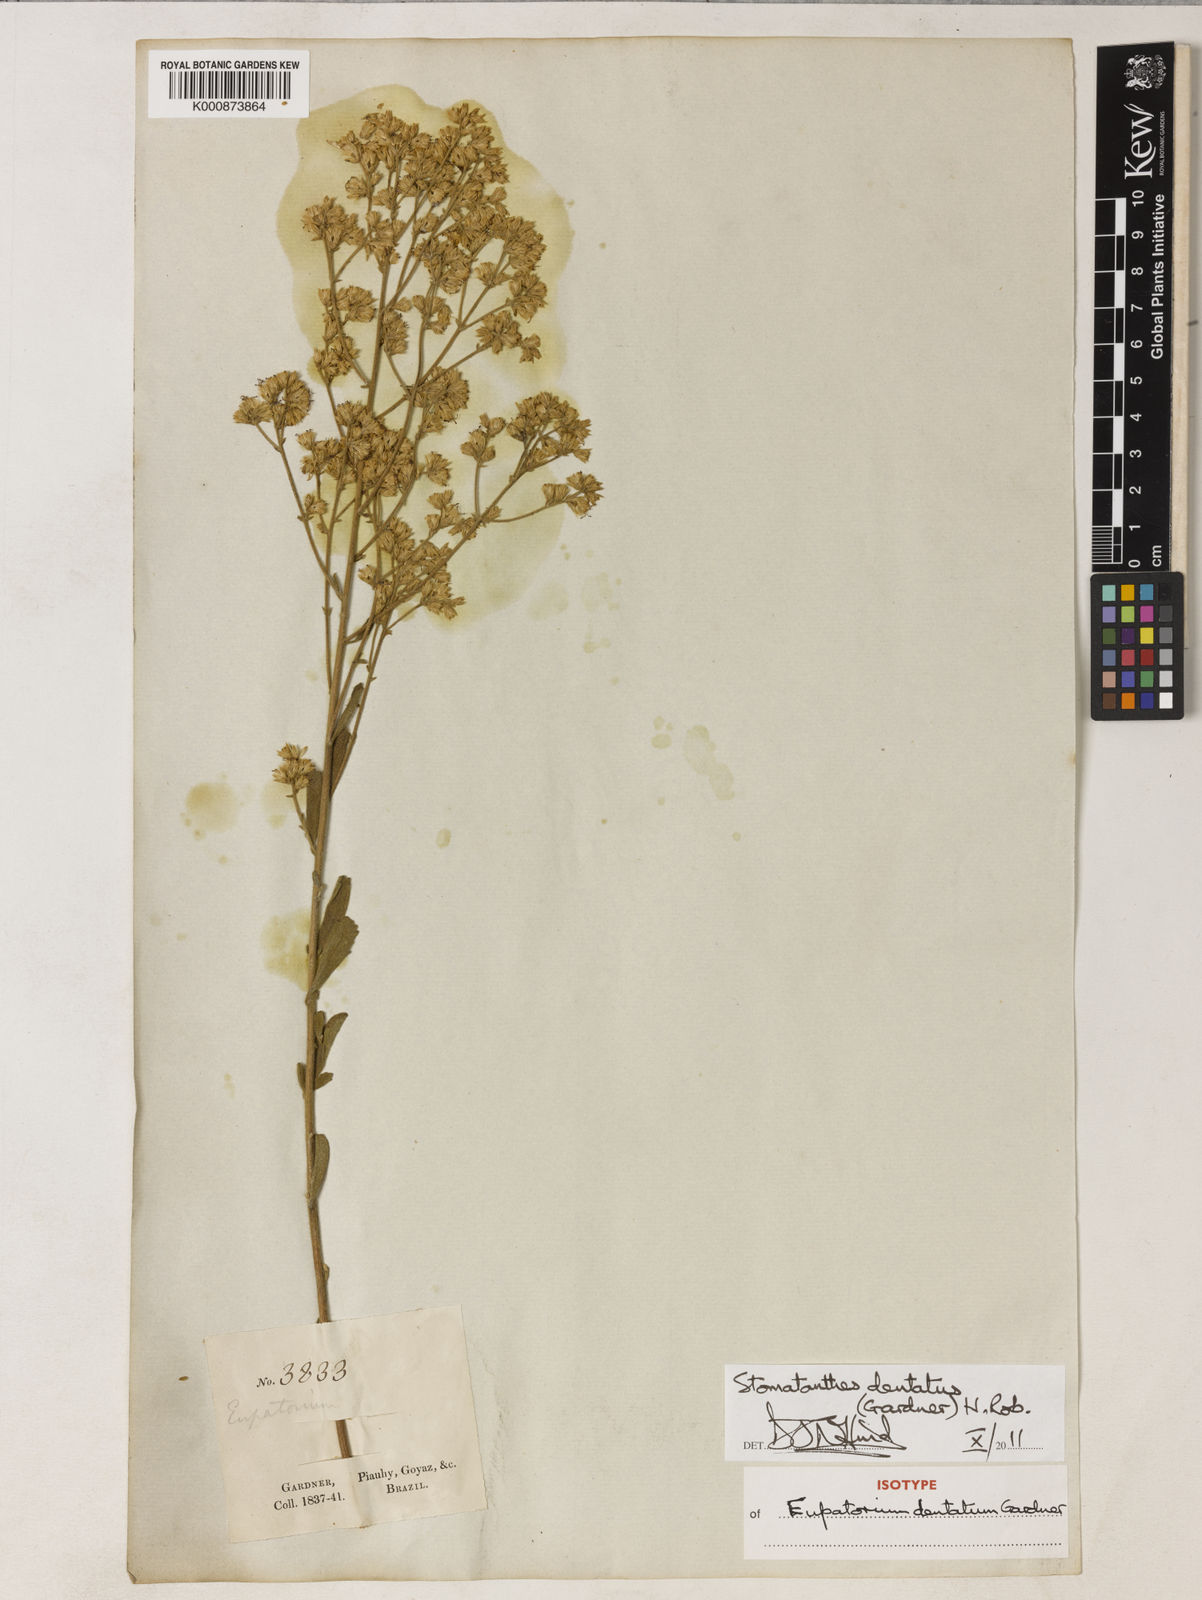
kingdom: Plantae
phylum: Tracheophyta
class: Magnoliopsida
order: Asterales
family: Asteraceae
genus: Stomatanthes
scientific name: Stomatanthes dentatus
